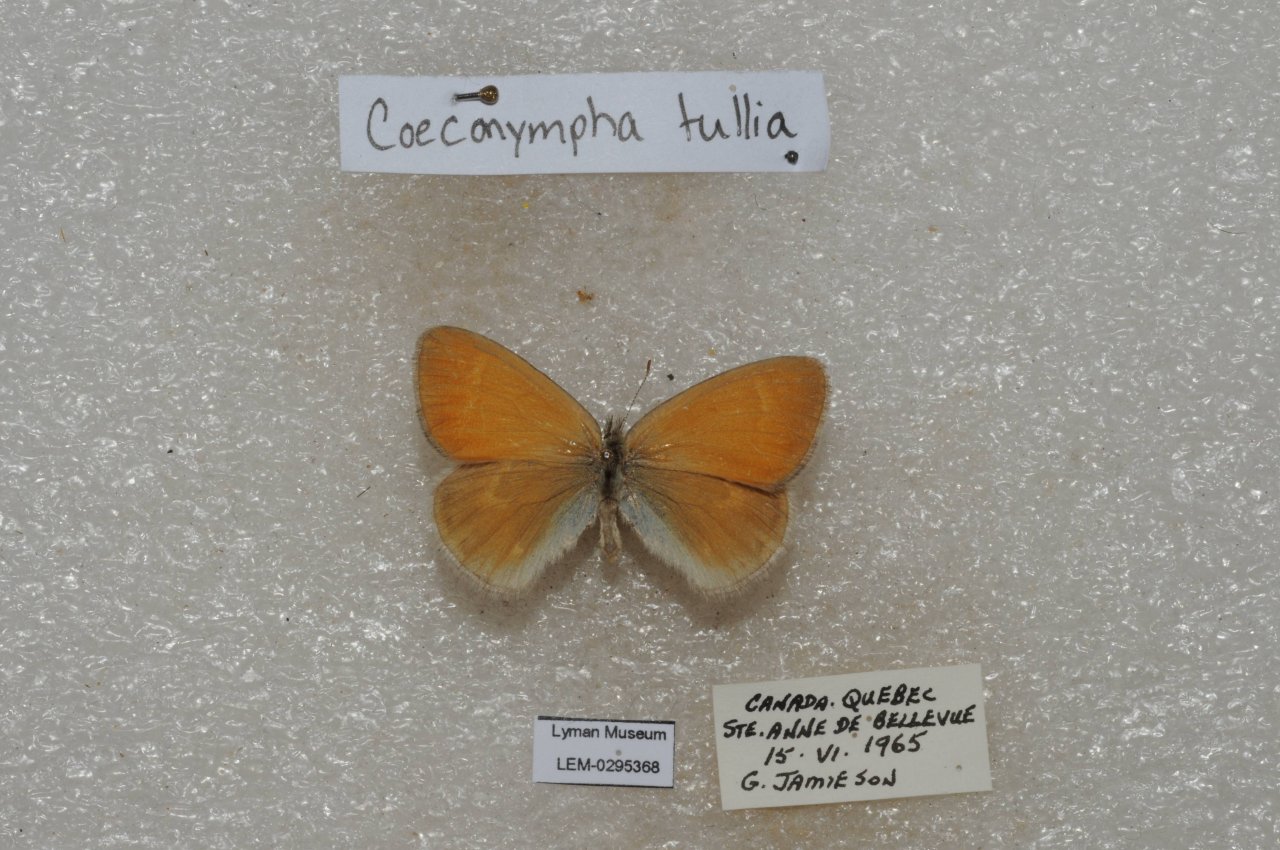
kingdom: Animalia
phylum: Arthropoda
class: Insecta
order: Lepidoptera
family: Nymphalidae
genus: Coenonympha
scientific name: Coenonympha tullia
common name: Large Heath
